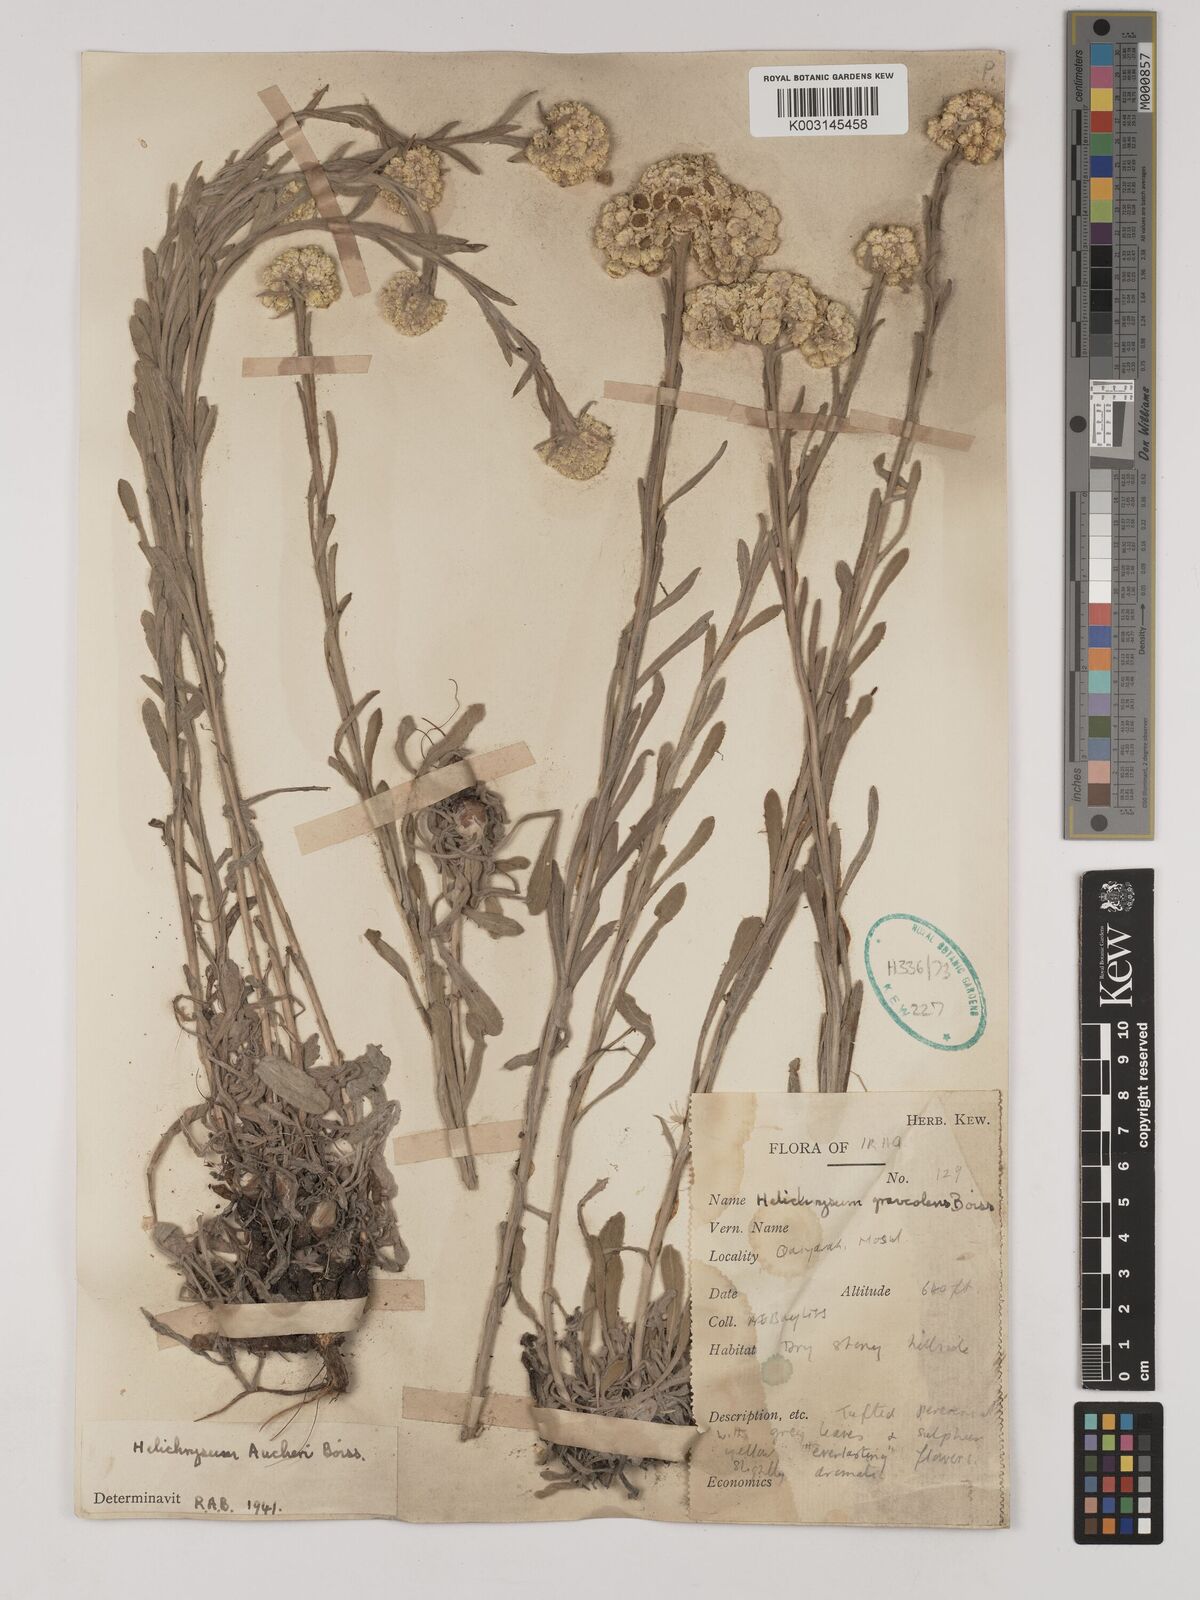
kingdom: Plantae
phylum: Tracheophyta
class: Magnoliopsida
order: Asterales
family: Asteraceae
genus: Helichrysum
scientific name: Helichrysum arenarium
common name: Strawflower
